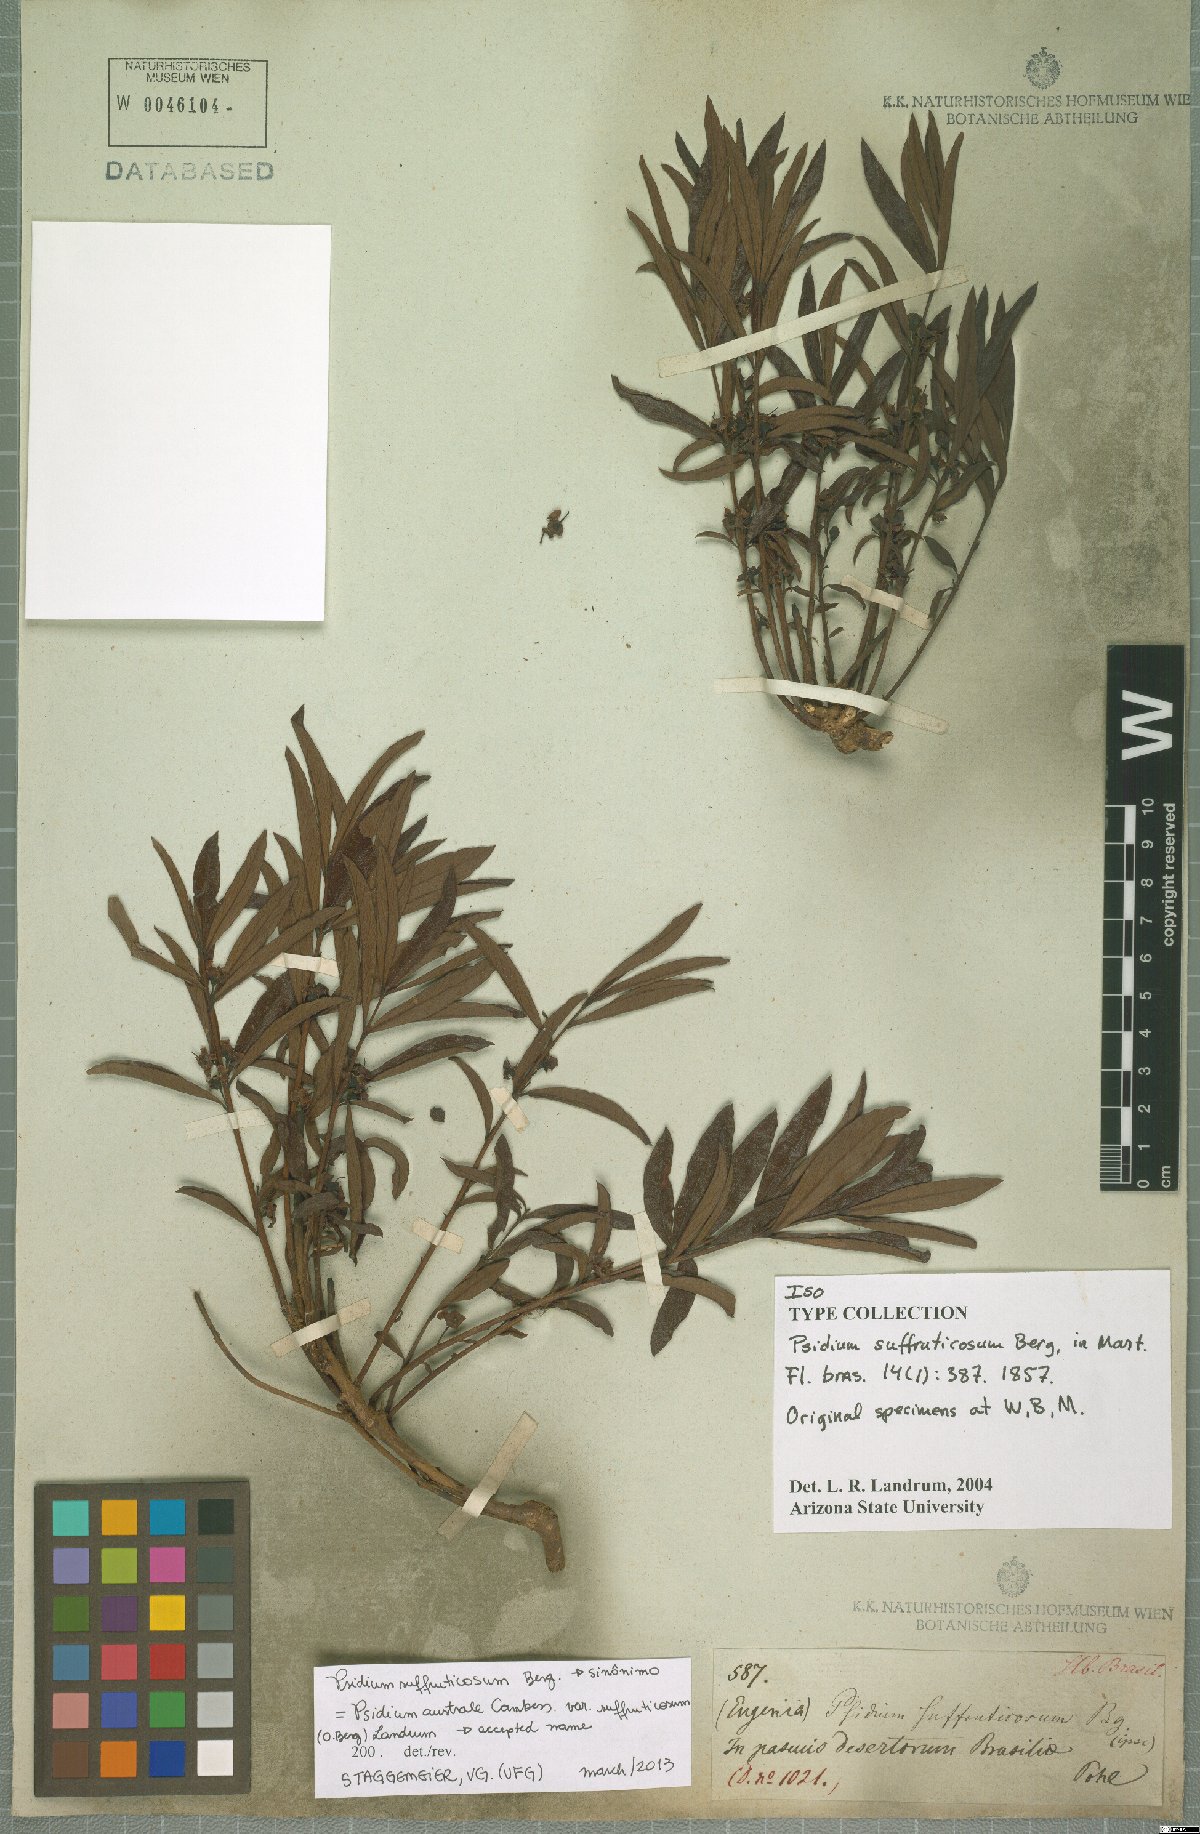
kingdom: Plantae
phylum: Tracheophyta
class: Magnoliopsida
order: Myrtales
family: Myrtaceae
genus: Psidium
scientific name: Psidium australe
